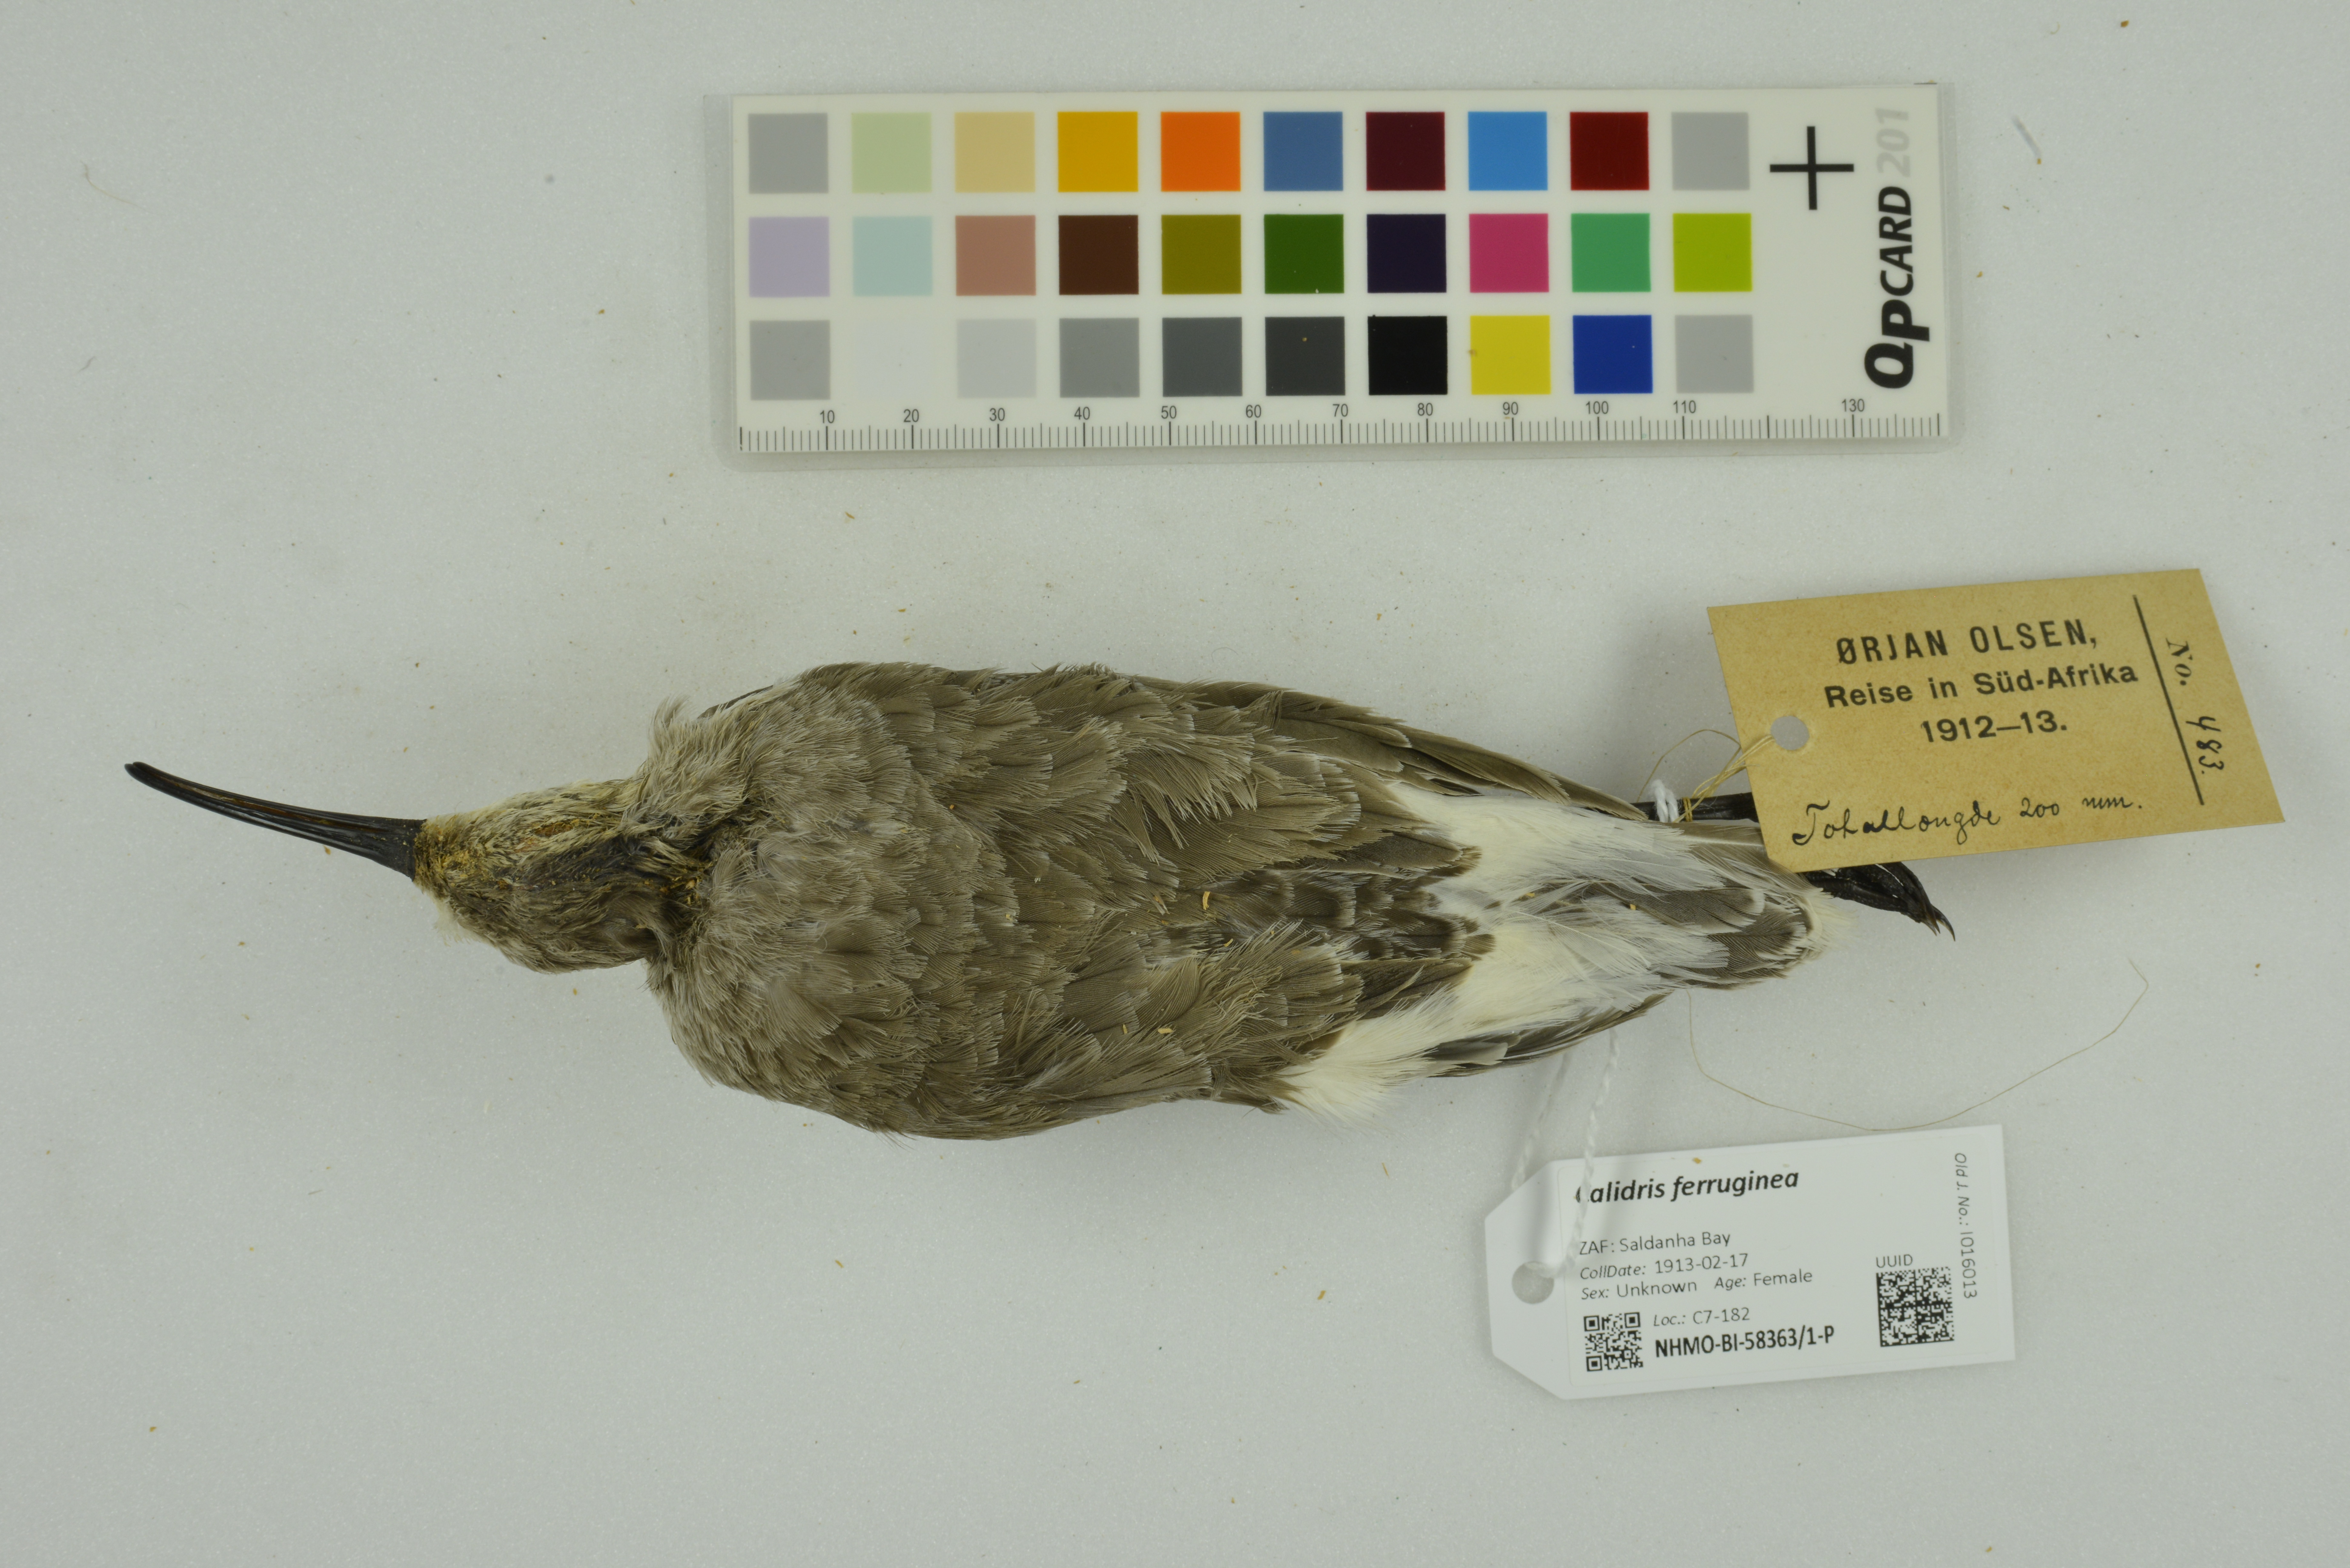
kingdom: Animalia
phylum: Chordata
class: Aves
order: Charadriiformes
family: Scolopacidae
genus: Calidris
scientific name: Calidris ferruginea
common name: Curlew sandpiper
